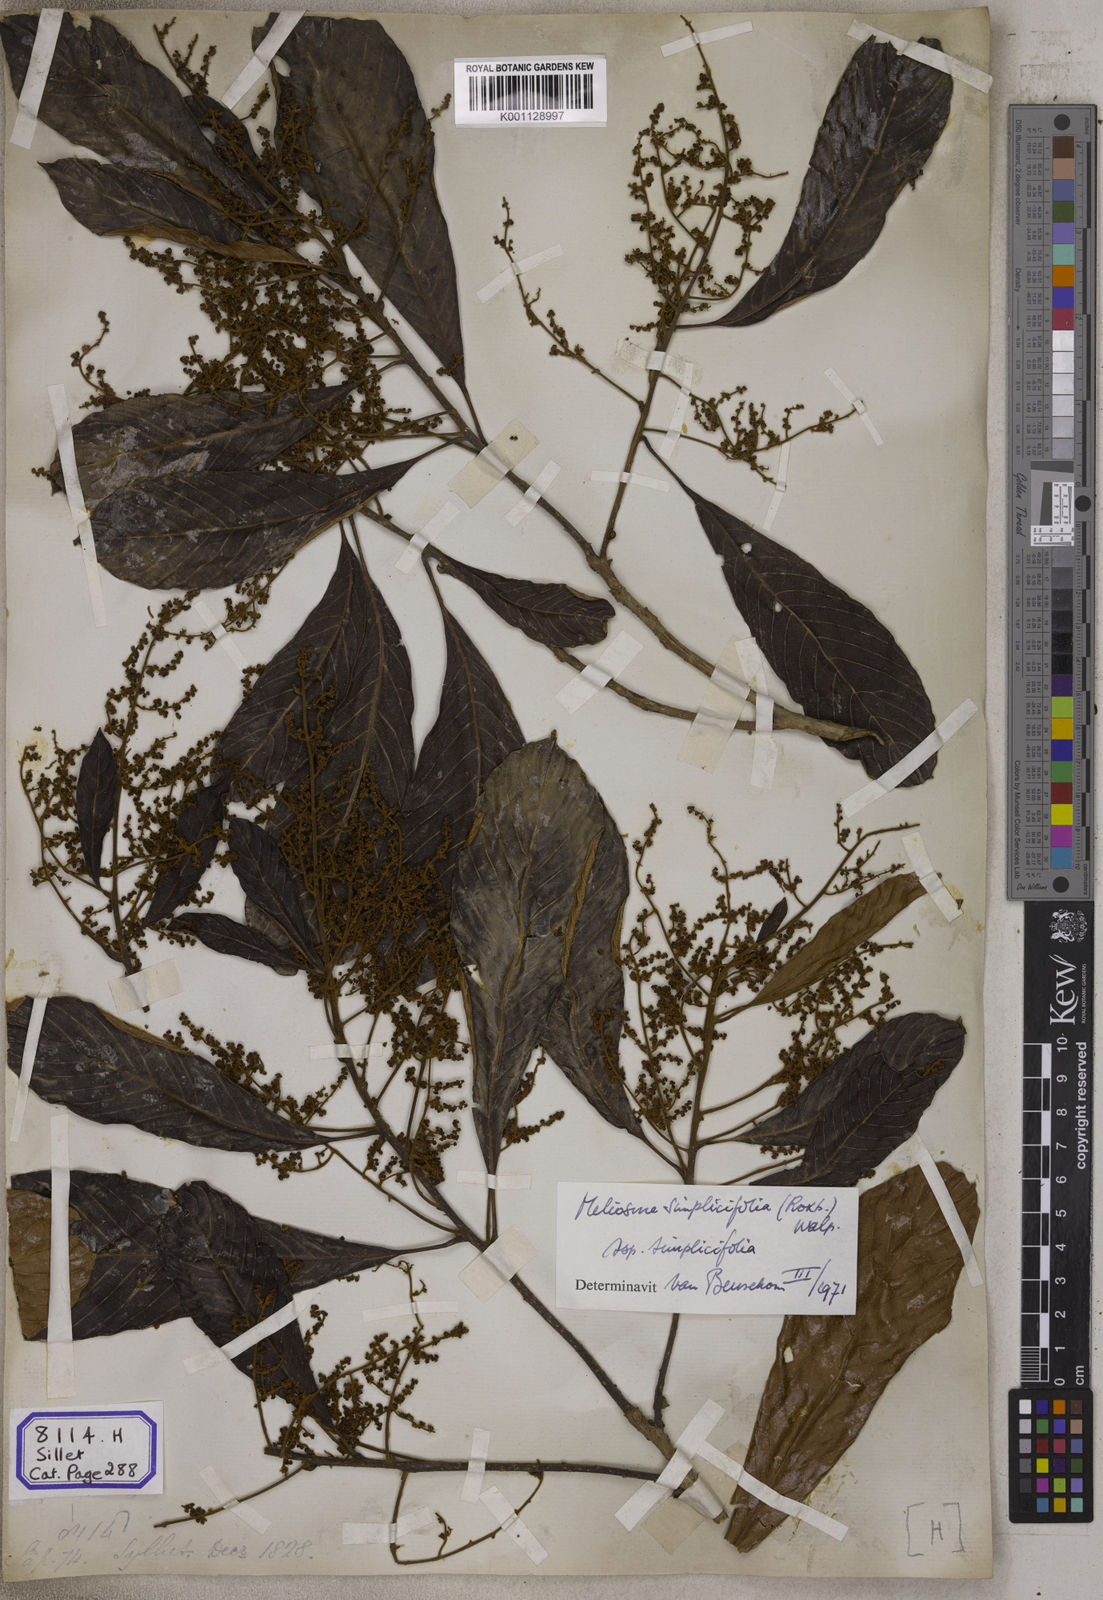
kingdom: Plantae
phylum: Tracheophyta
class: Magnoliopsida
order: Proteales
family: Sabiaceae
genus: Meliosma
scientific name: Meliosma simplicifolia
